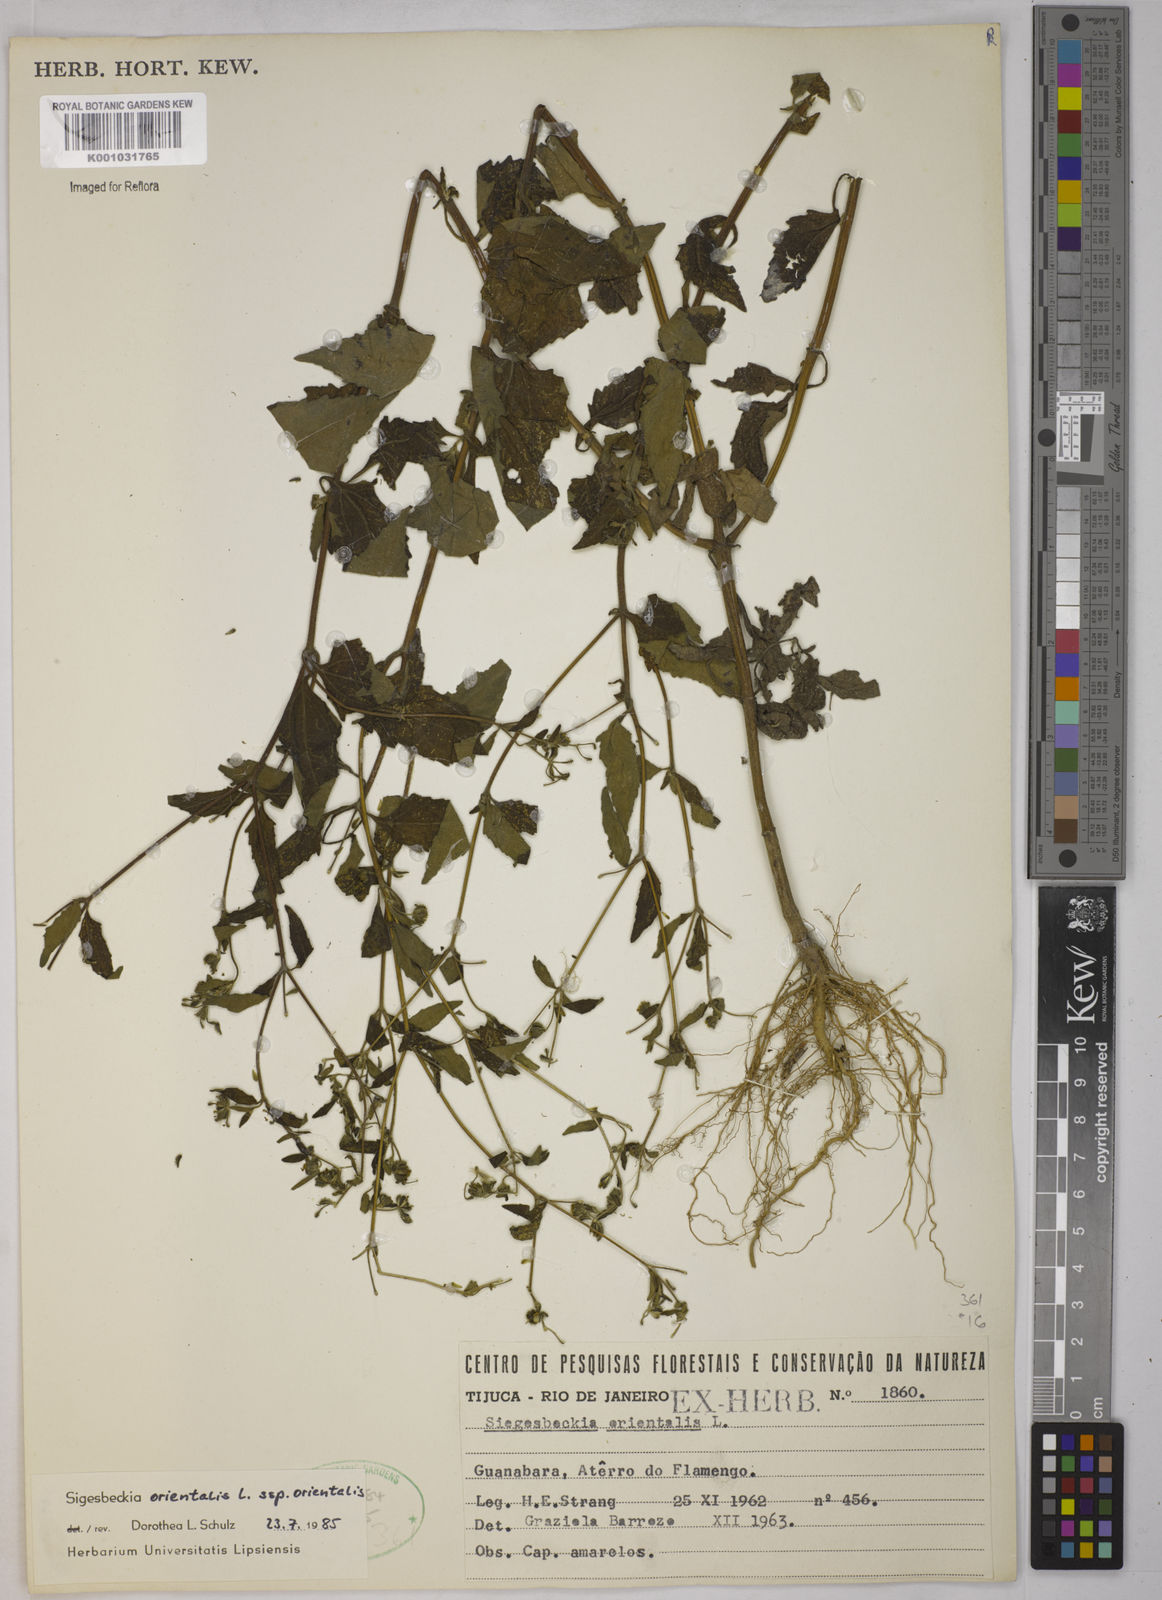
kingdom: Plantae
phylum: Tracheophyta
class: Magnoliopsida
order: Asterales
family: Asteraceae
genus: Sigesbeckia
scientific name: Sigesbeckia orientalis
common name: Eastern st paul's-wort
